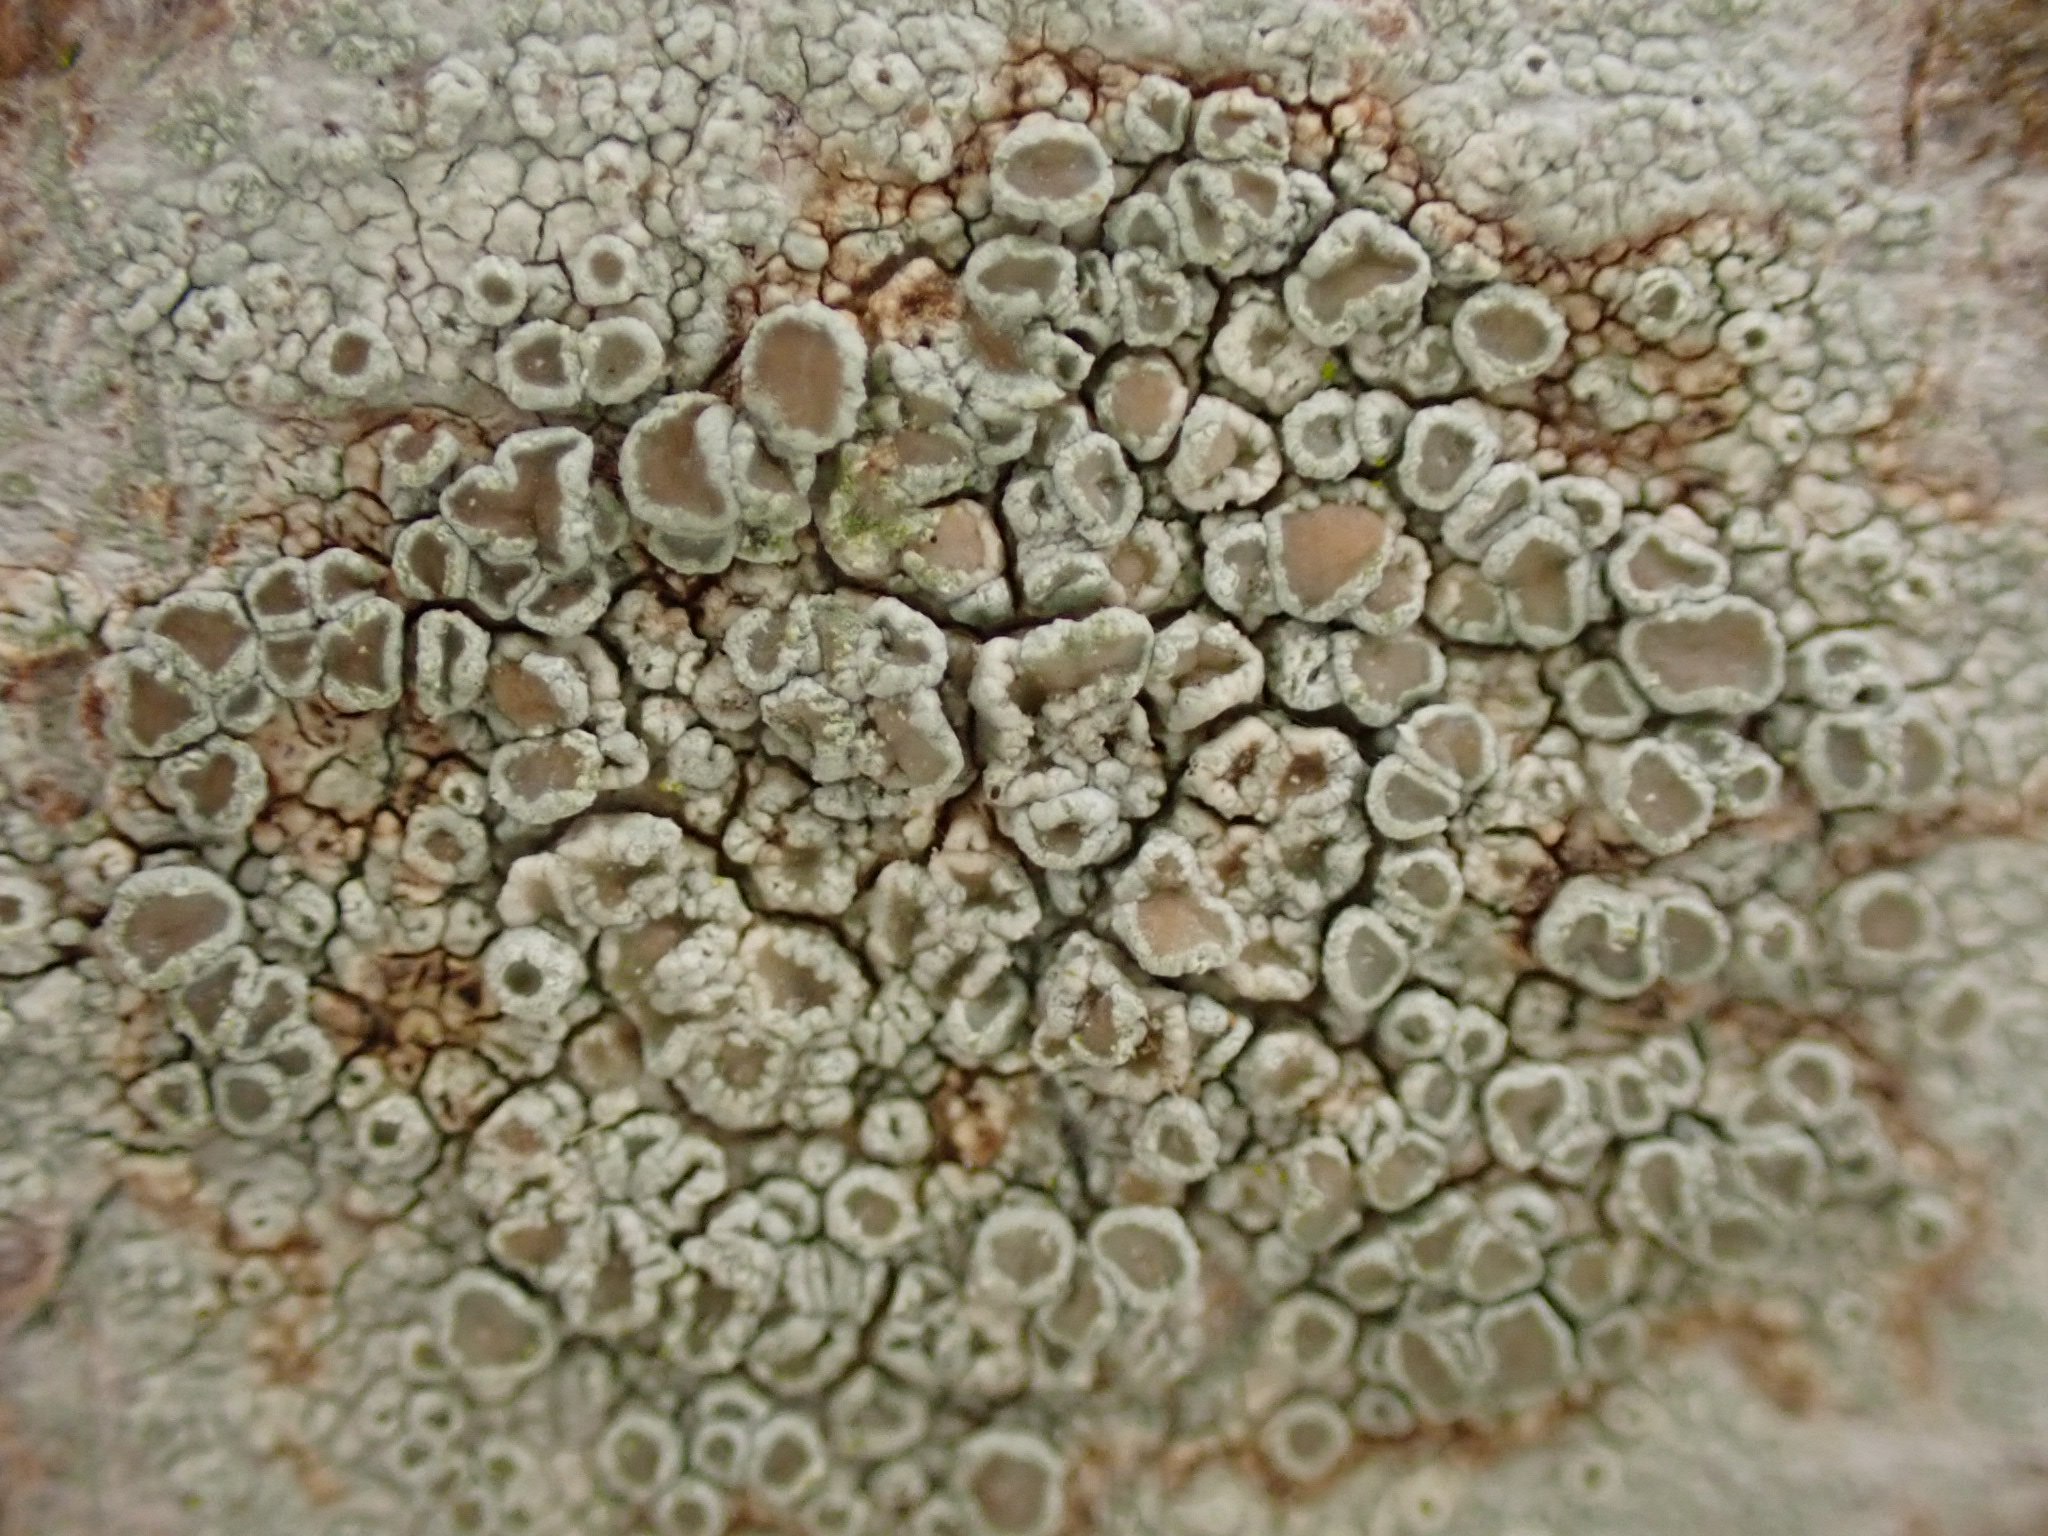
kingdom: Fungi
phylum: Ascomycota
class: Lecanoromycetes
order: Lecanorales
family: Lecanoraceae
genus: Lecanora
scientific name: Lecanora chlarotera
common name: brun kantskivelav
